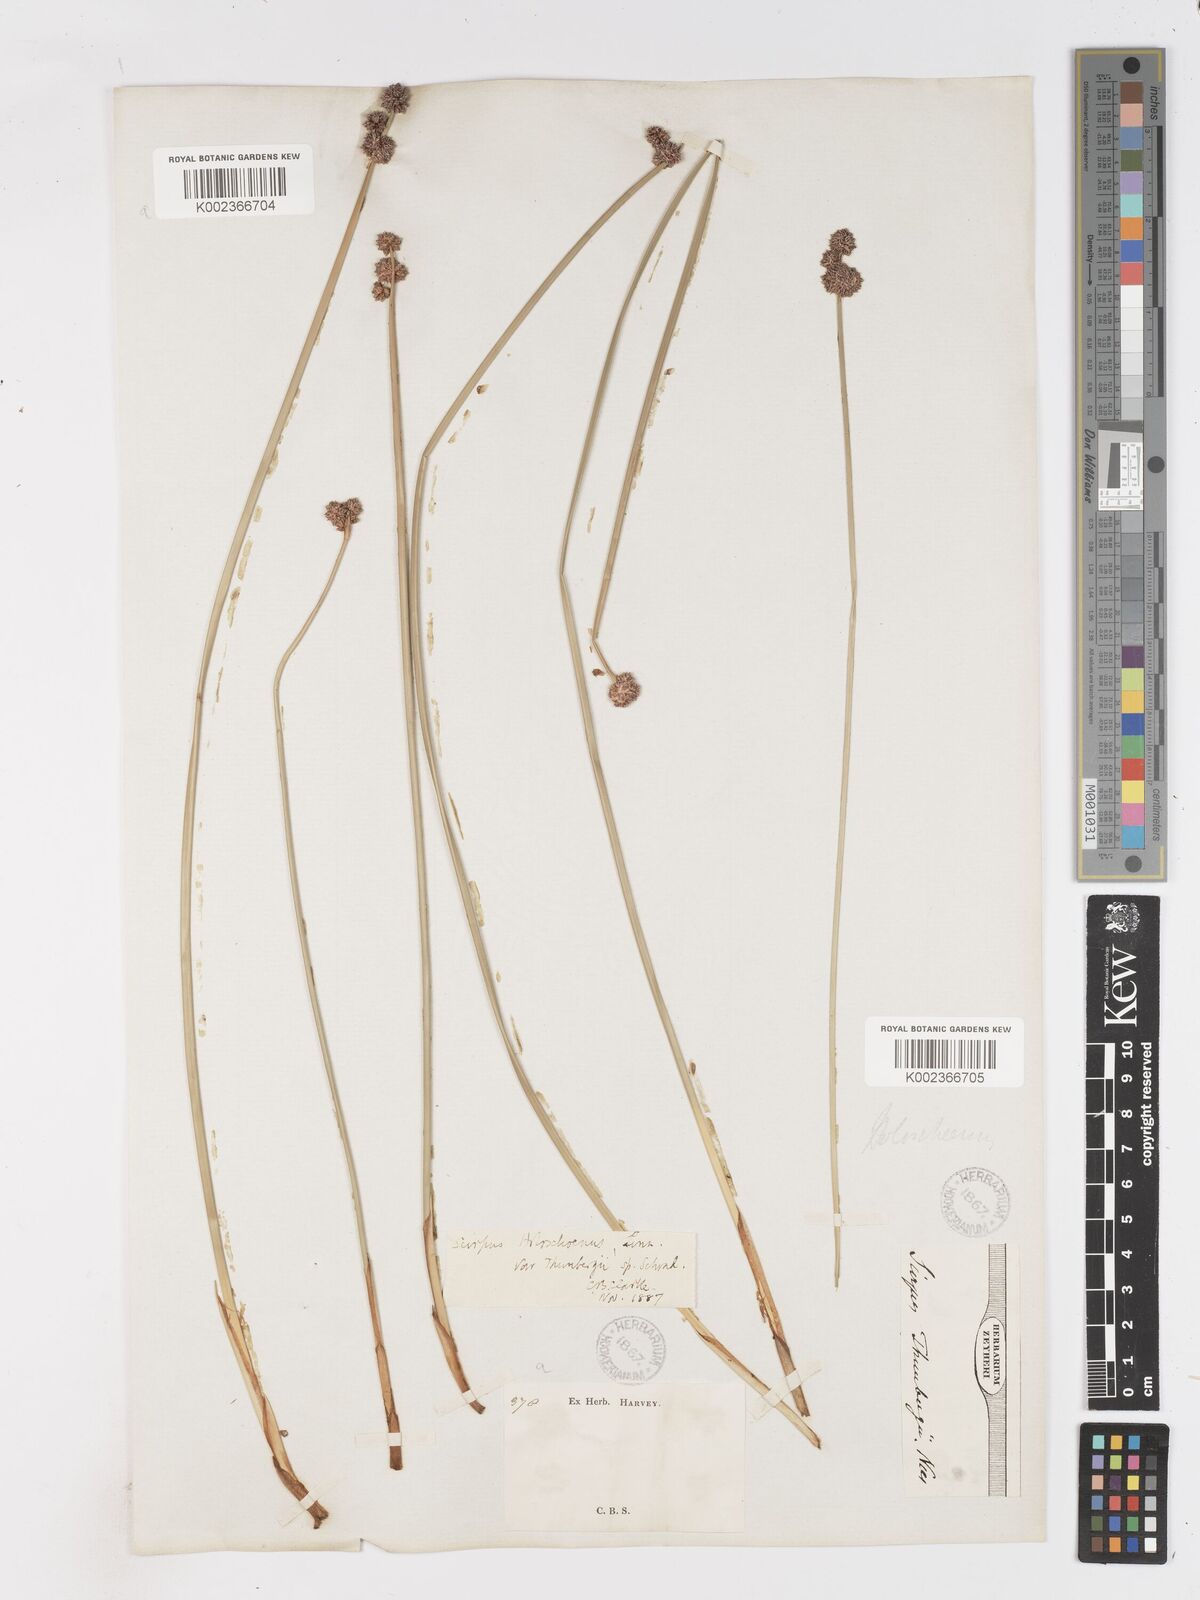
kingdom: Plantae
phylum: Tracheophyta
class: Liliopsida
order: Poales
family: Cyperaceae
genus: Scirpoides
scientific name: Scirpoides holoschoenus
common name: Round-headed club-rush
